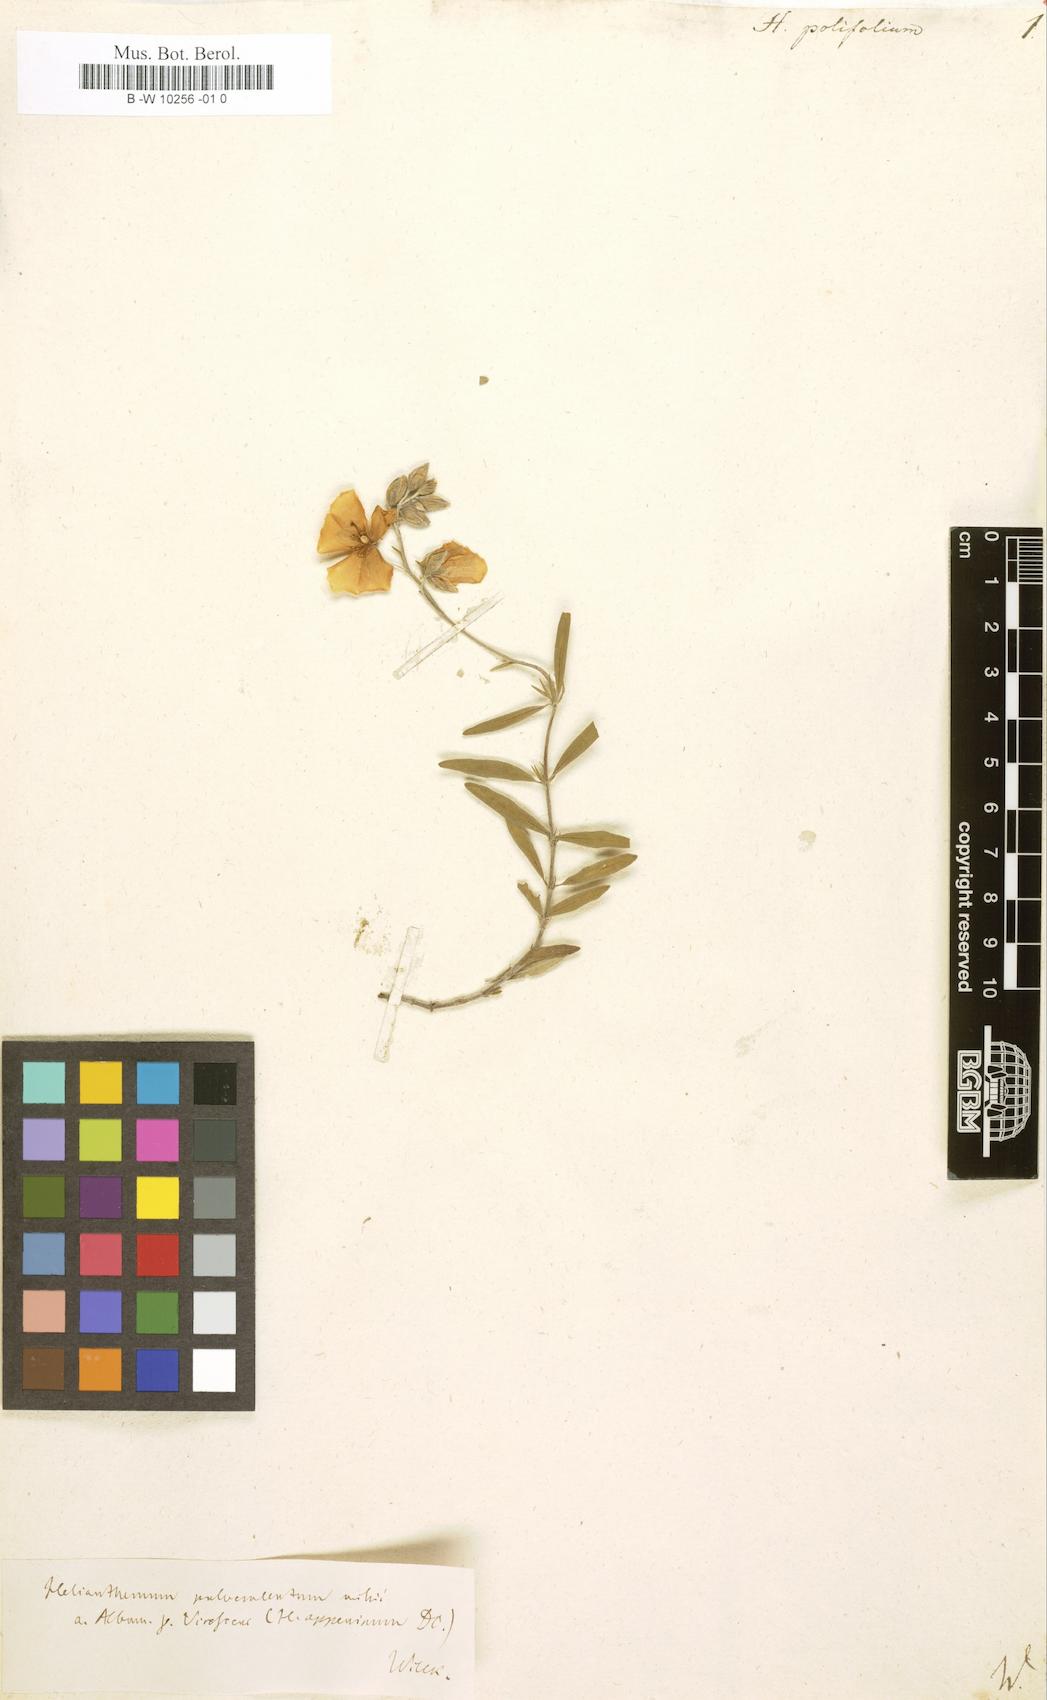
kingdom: Plantae
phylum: Tracheophyta
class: Magnoliopsida
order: Malvales
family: Cistaceae
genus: Helianthemum
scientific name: Helianthemum polifolium
